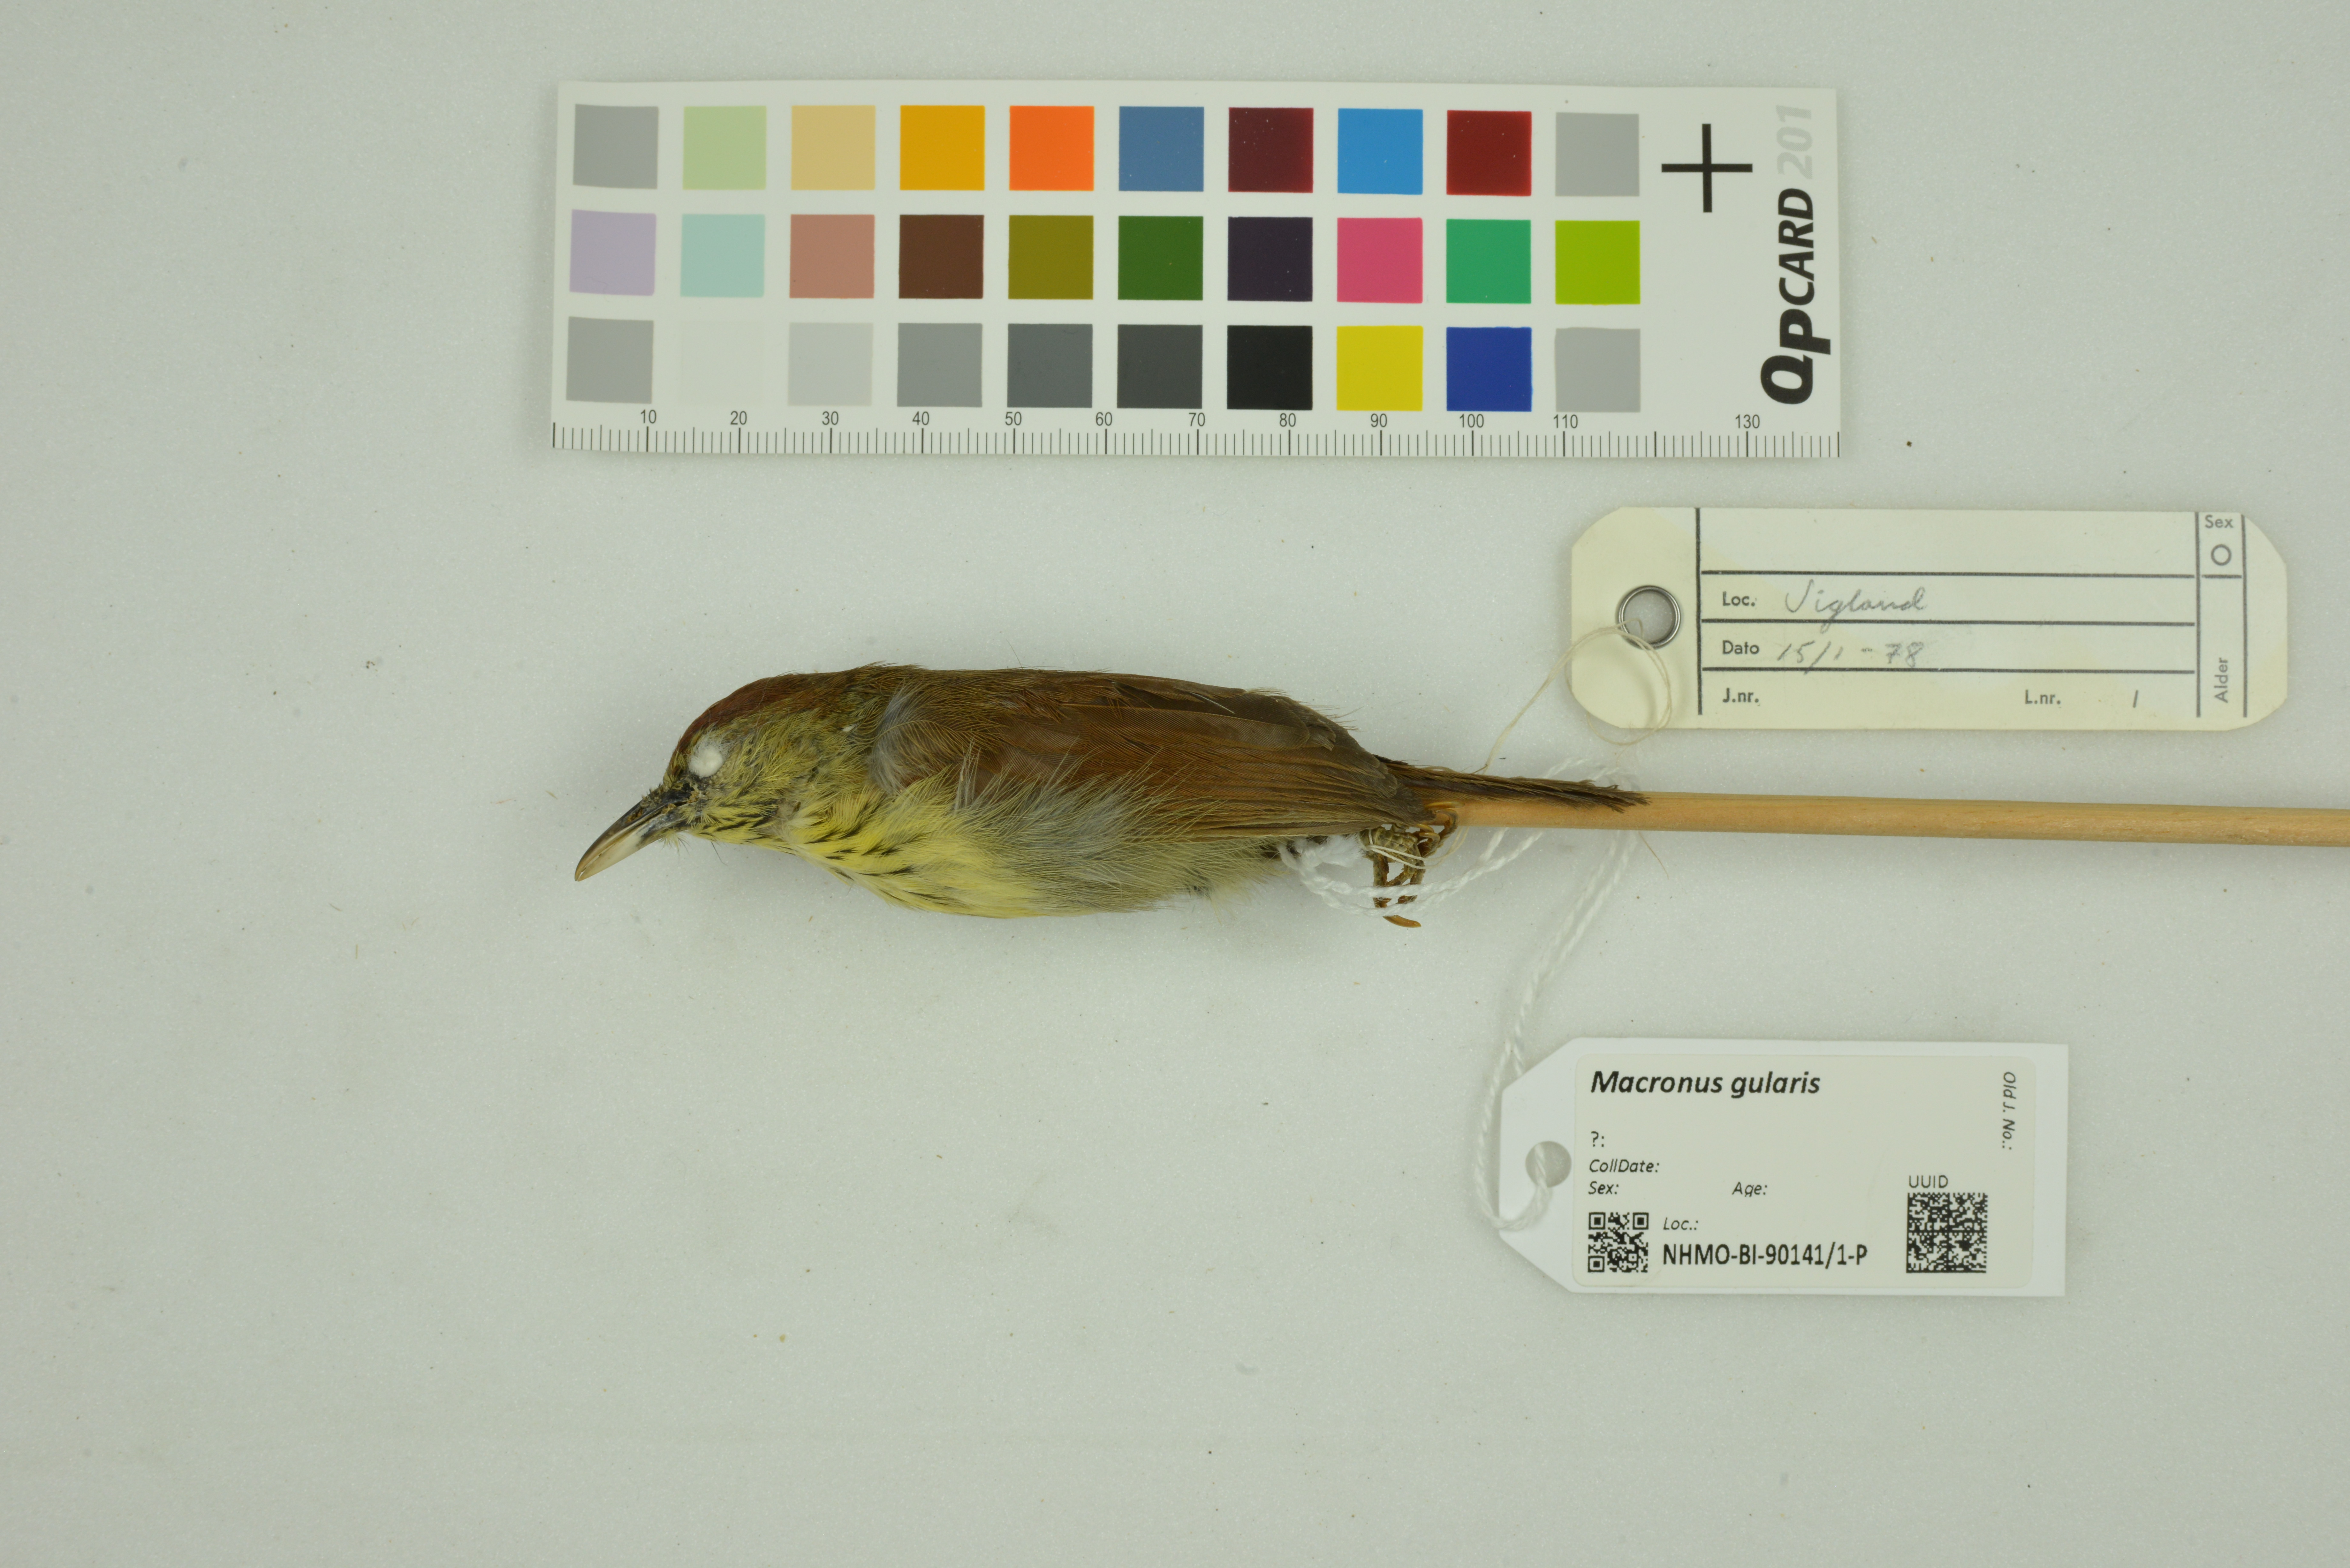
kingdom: Animalia
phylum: Chordata
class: Aves
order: Passeriformes
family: Timaliidae
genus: Macronus
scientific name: Macronus gularis
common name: Striped tit-babbler
